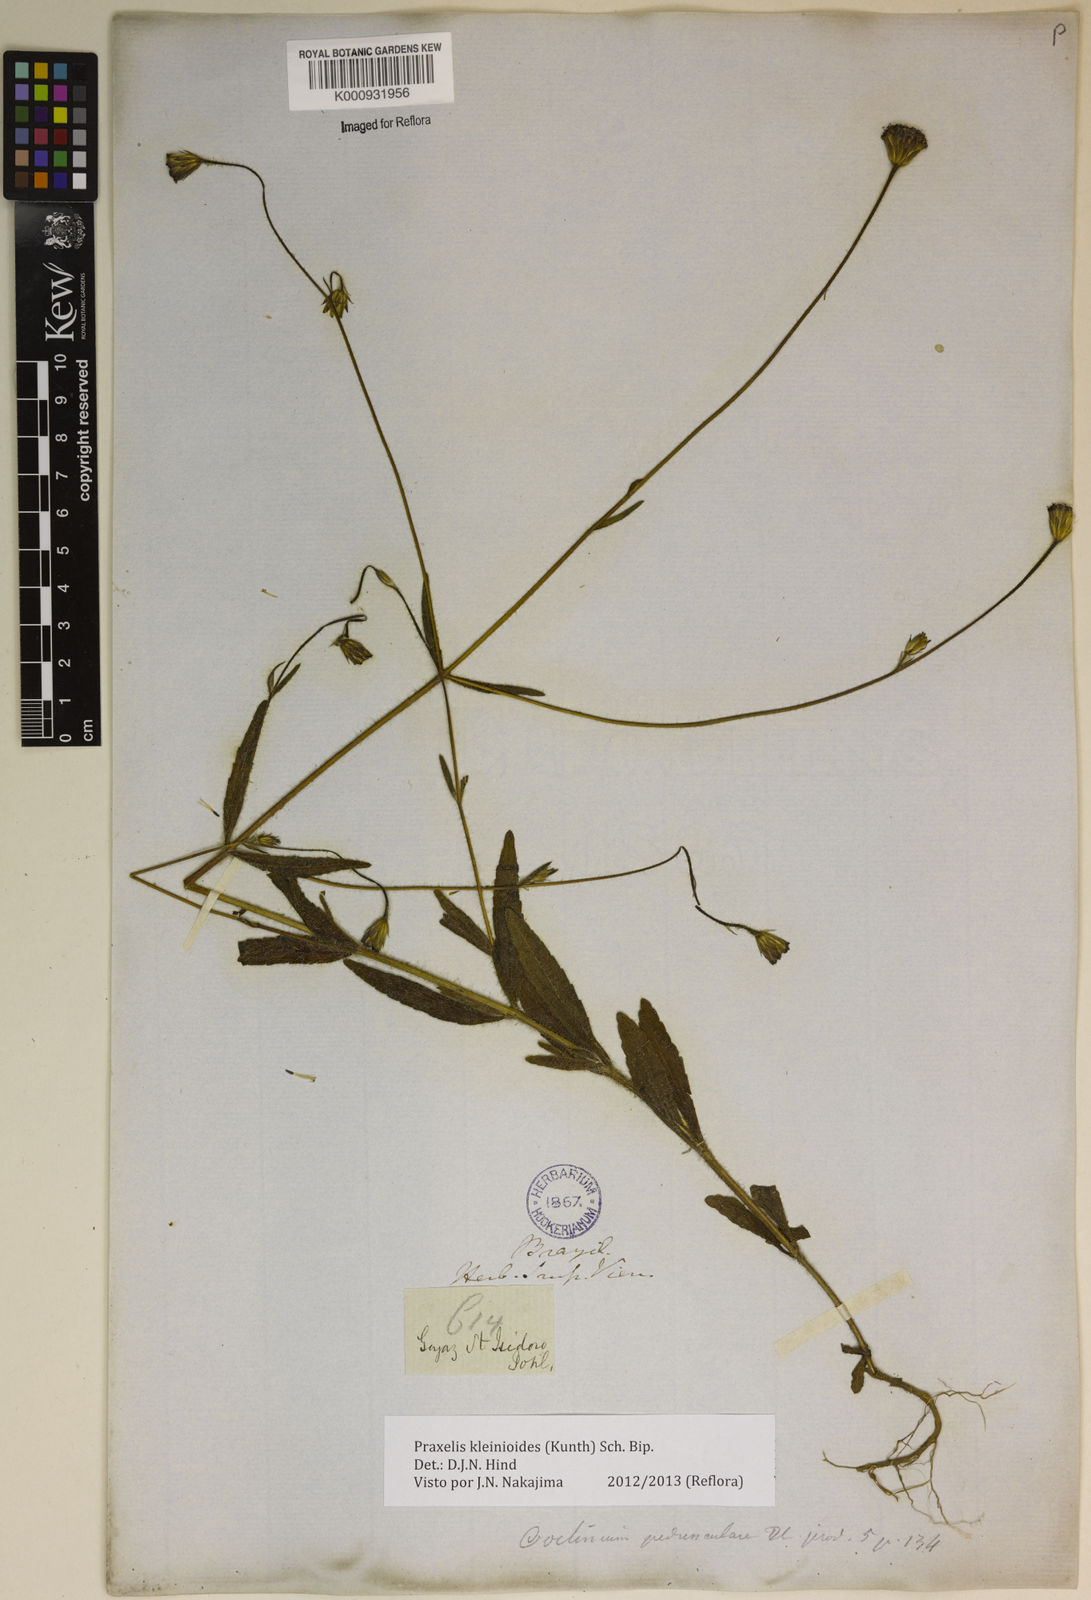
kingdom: Plantae
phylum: Tracheophyta
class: Magnoliopsida
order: Asterales
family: Asteraceae
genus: Praxelis
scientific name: Praxelis kleinioides
